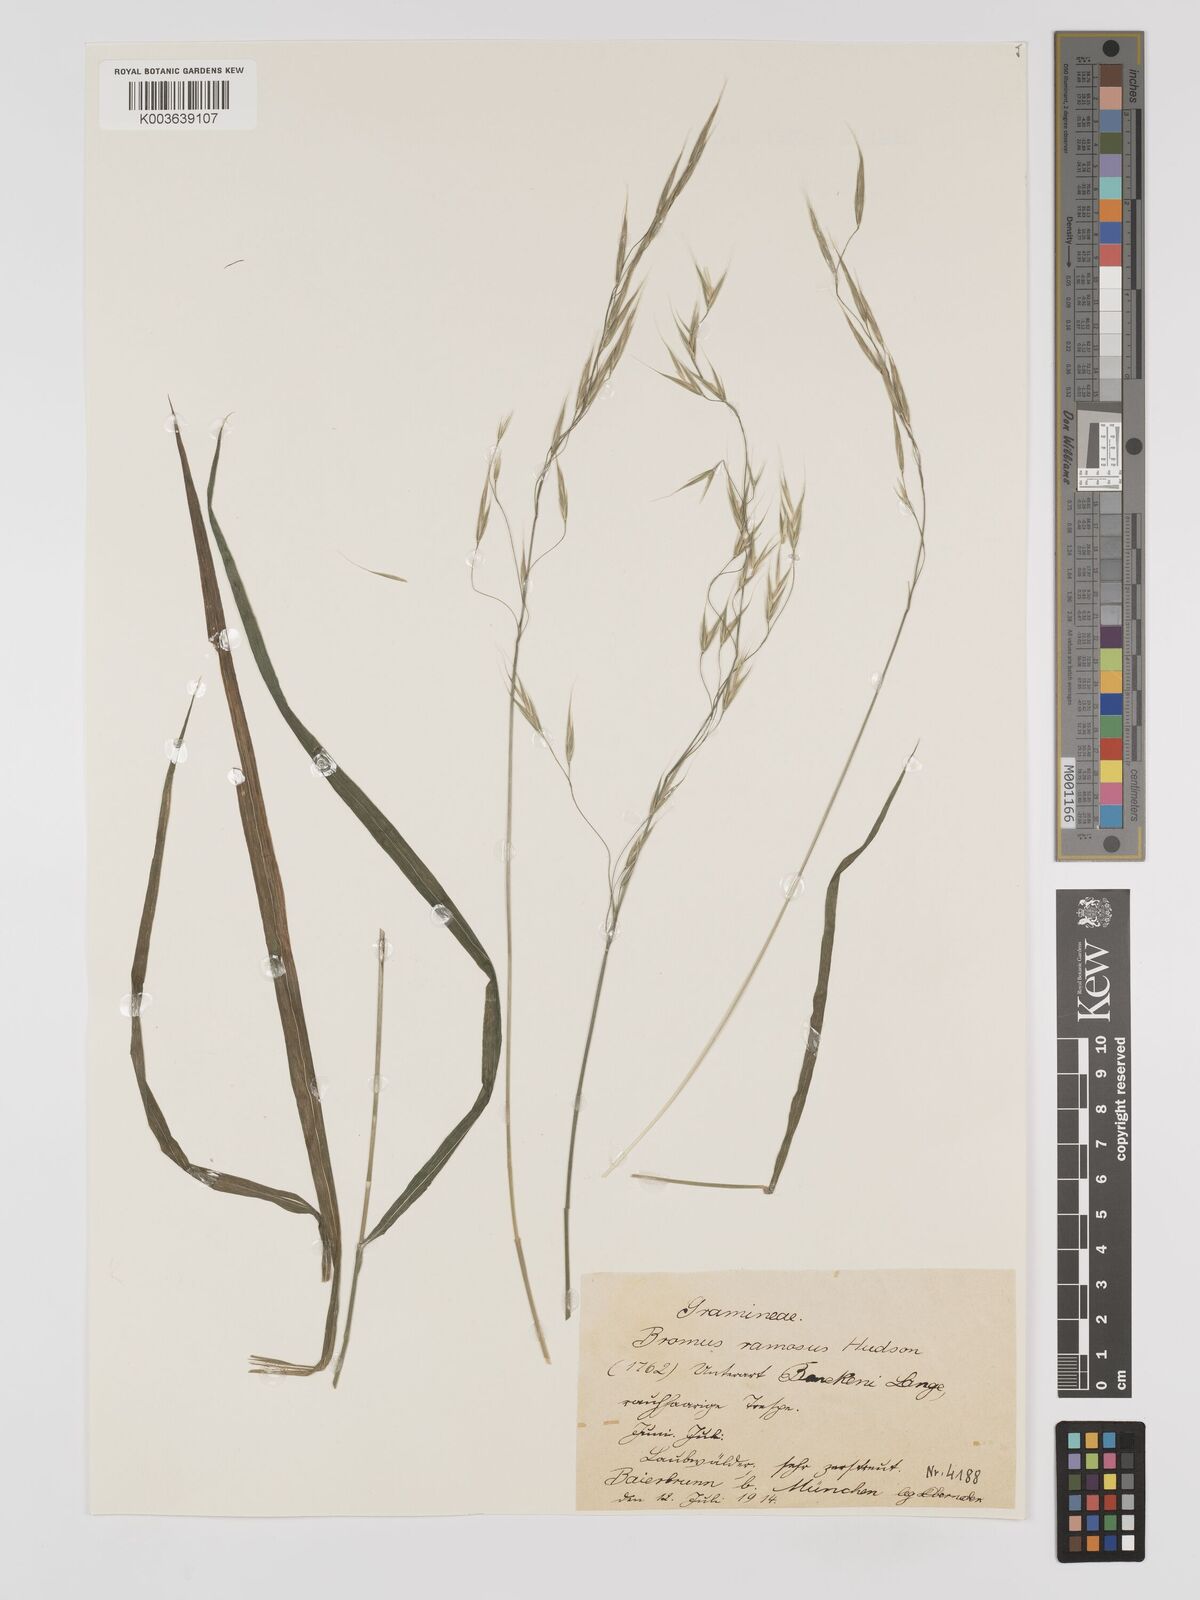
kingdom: Plantae
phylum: Tracheophyta
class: Liliopsida
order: Poales
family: Poaceae
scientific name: Poaceae
